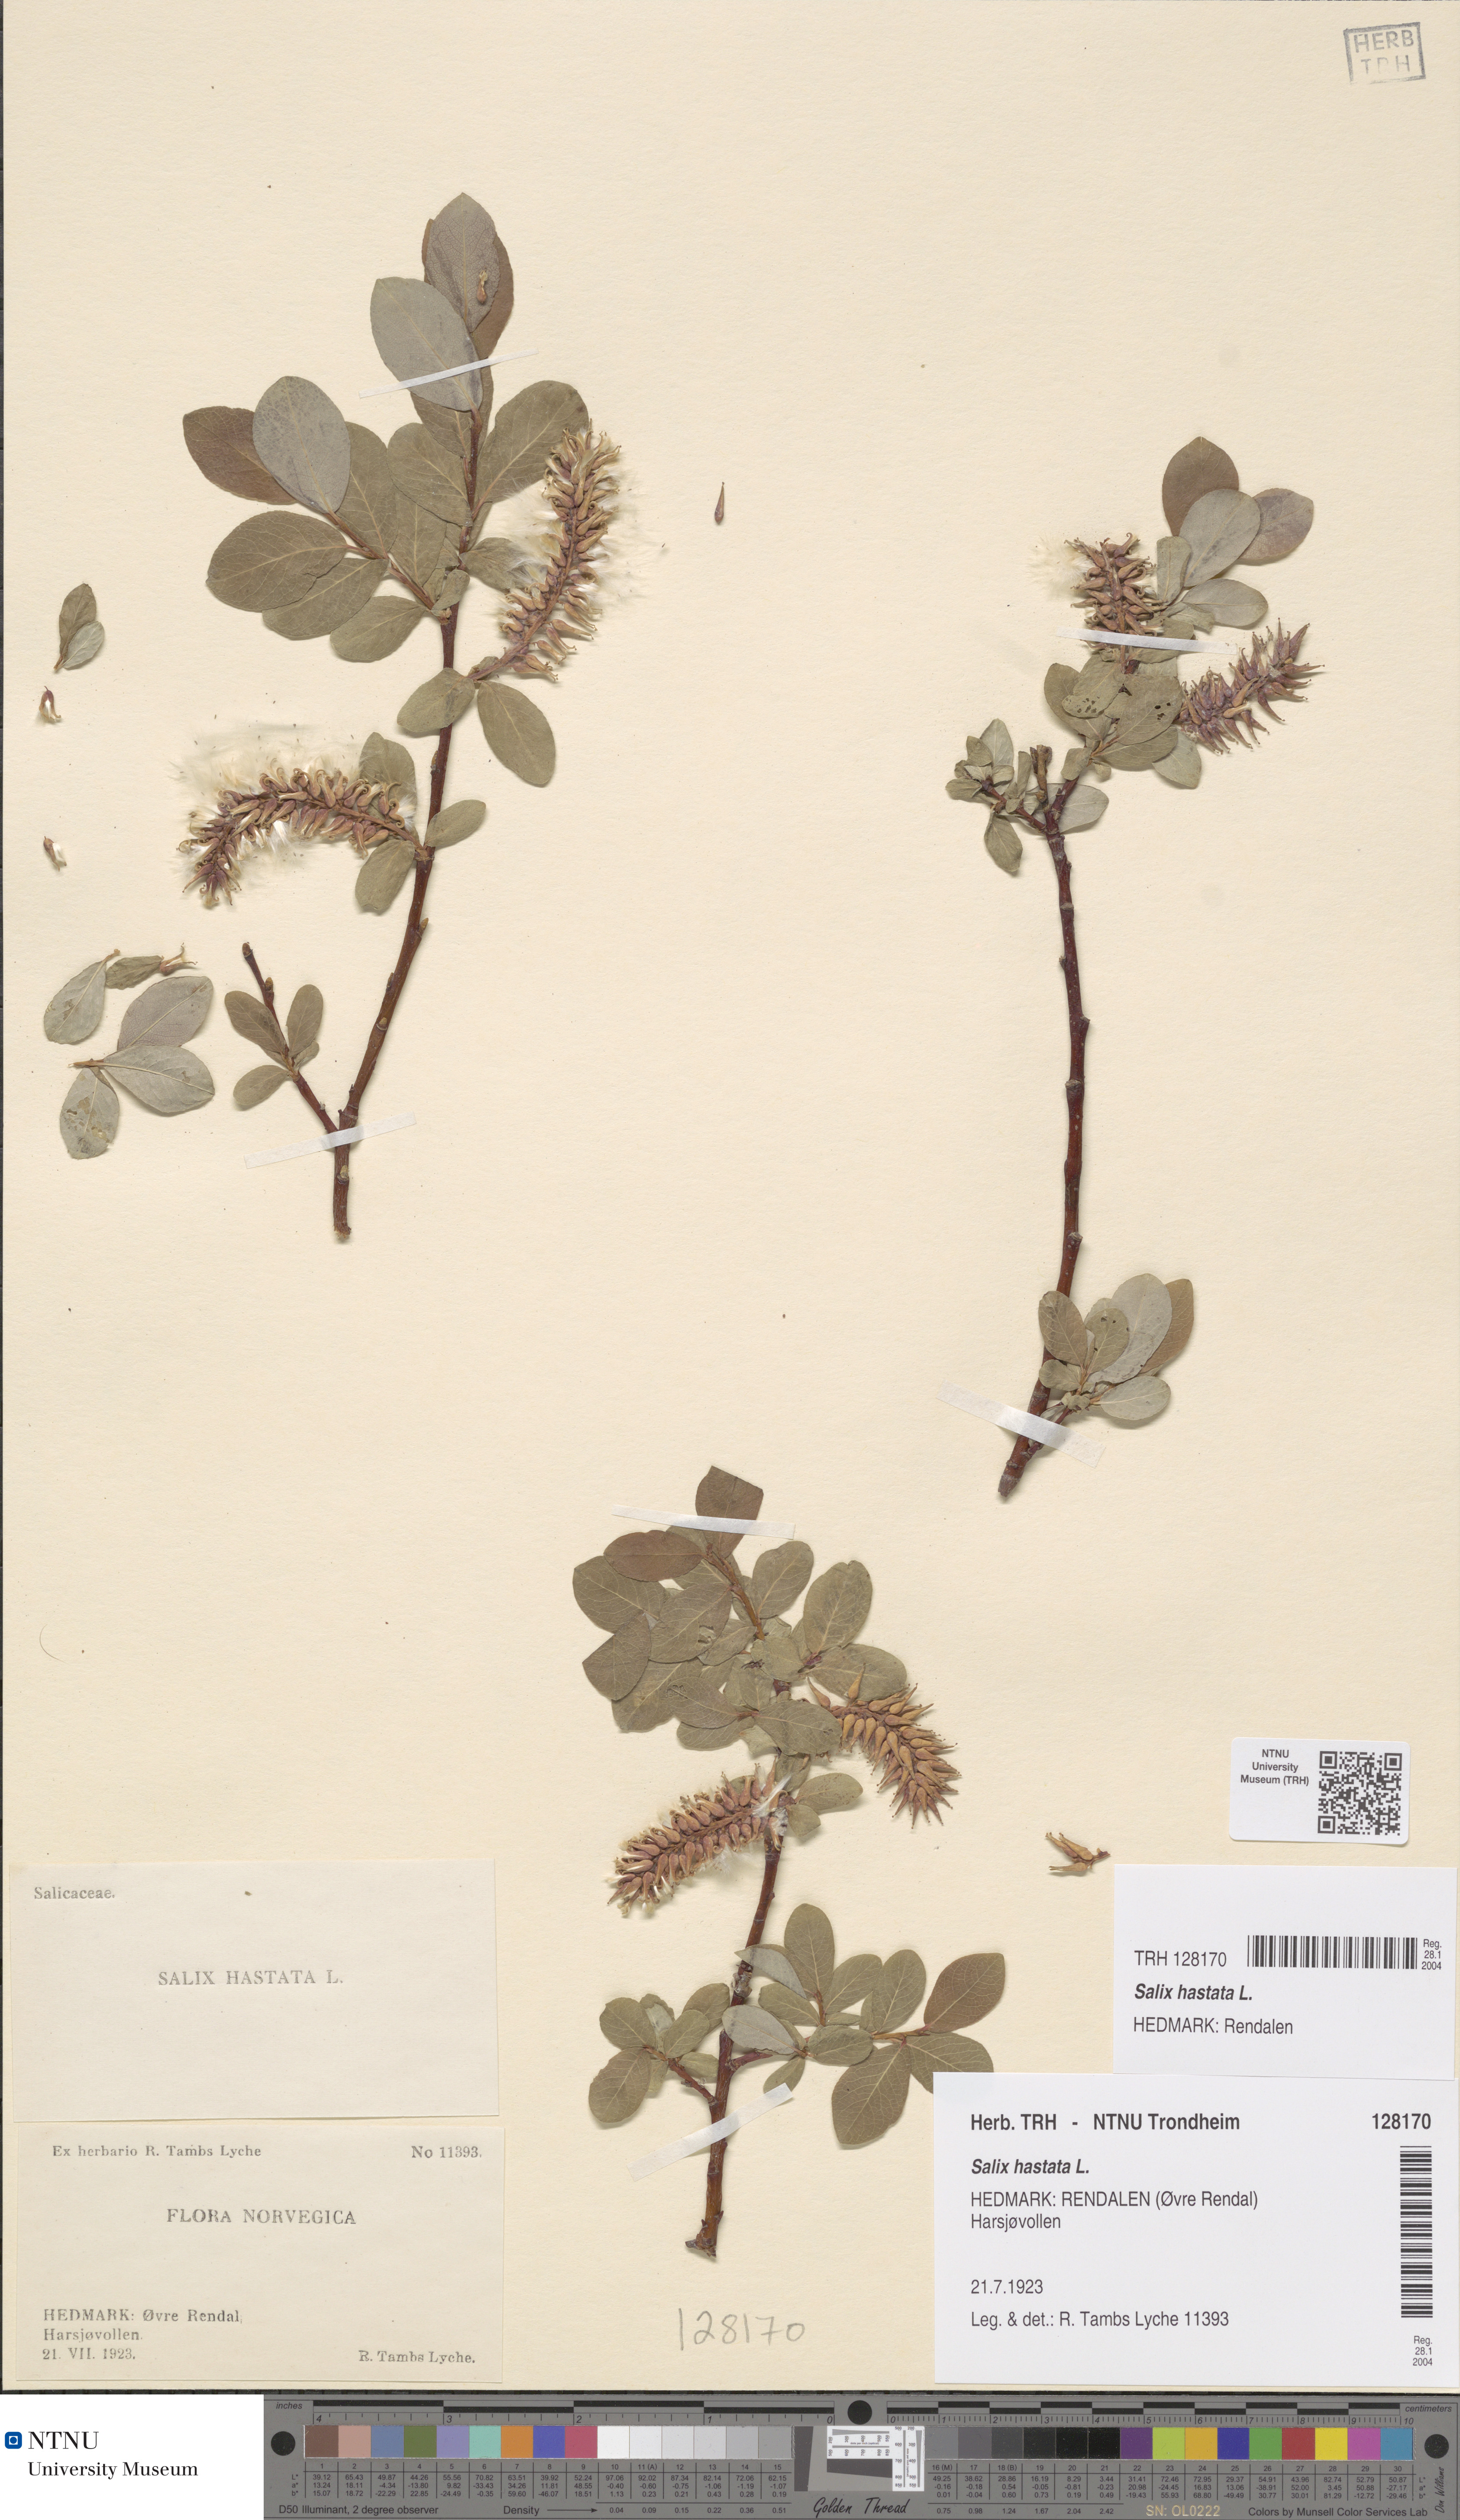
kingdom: Plantae
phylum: Tracheophyta
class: Magnoliopsida
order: Malpighiales
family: Salicaceae
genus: Salix
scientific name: Salix hastata
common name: Halberd willow
